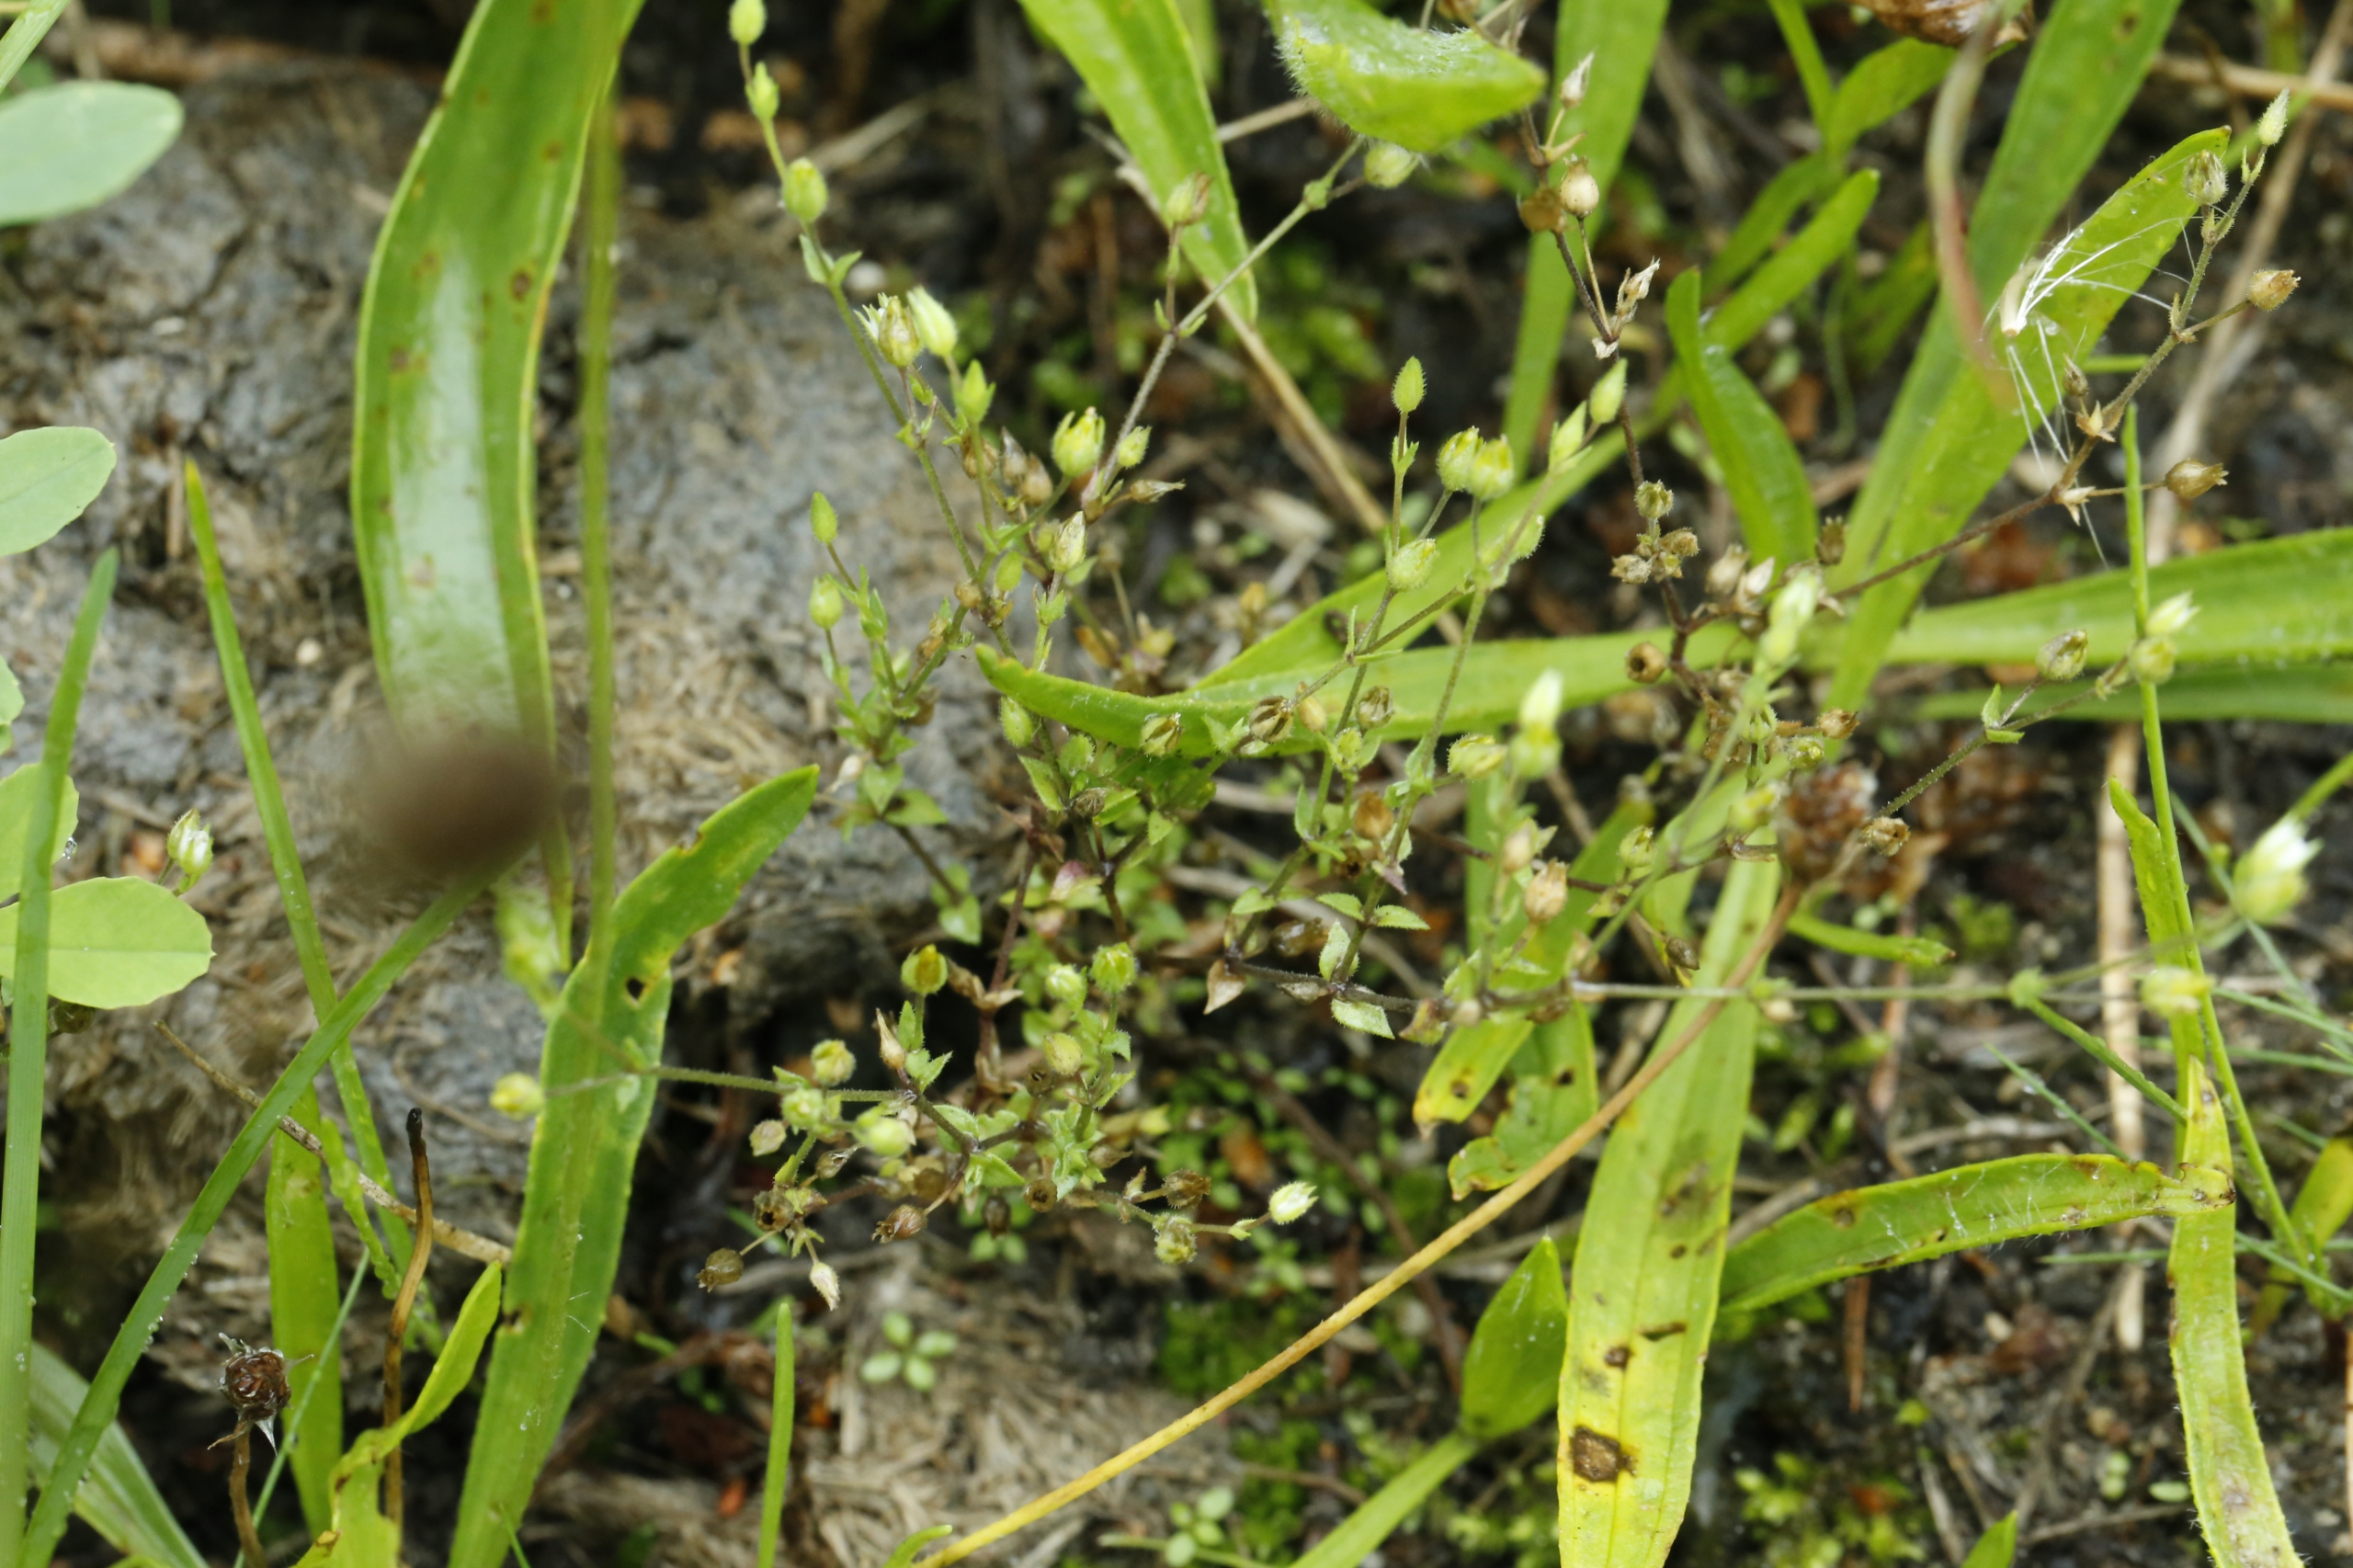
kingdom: Plantae
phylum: Tracheophyta
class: Magnoliopsida
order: Caryophyllales
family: Caryophyllaceae
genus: Arenaria
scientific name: Arenaria serpyllifolia
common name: Almindelig markarve
